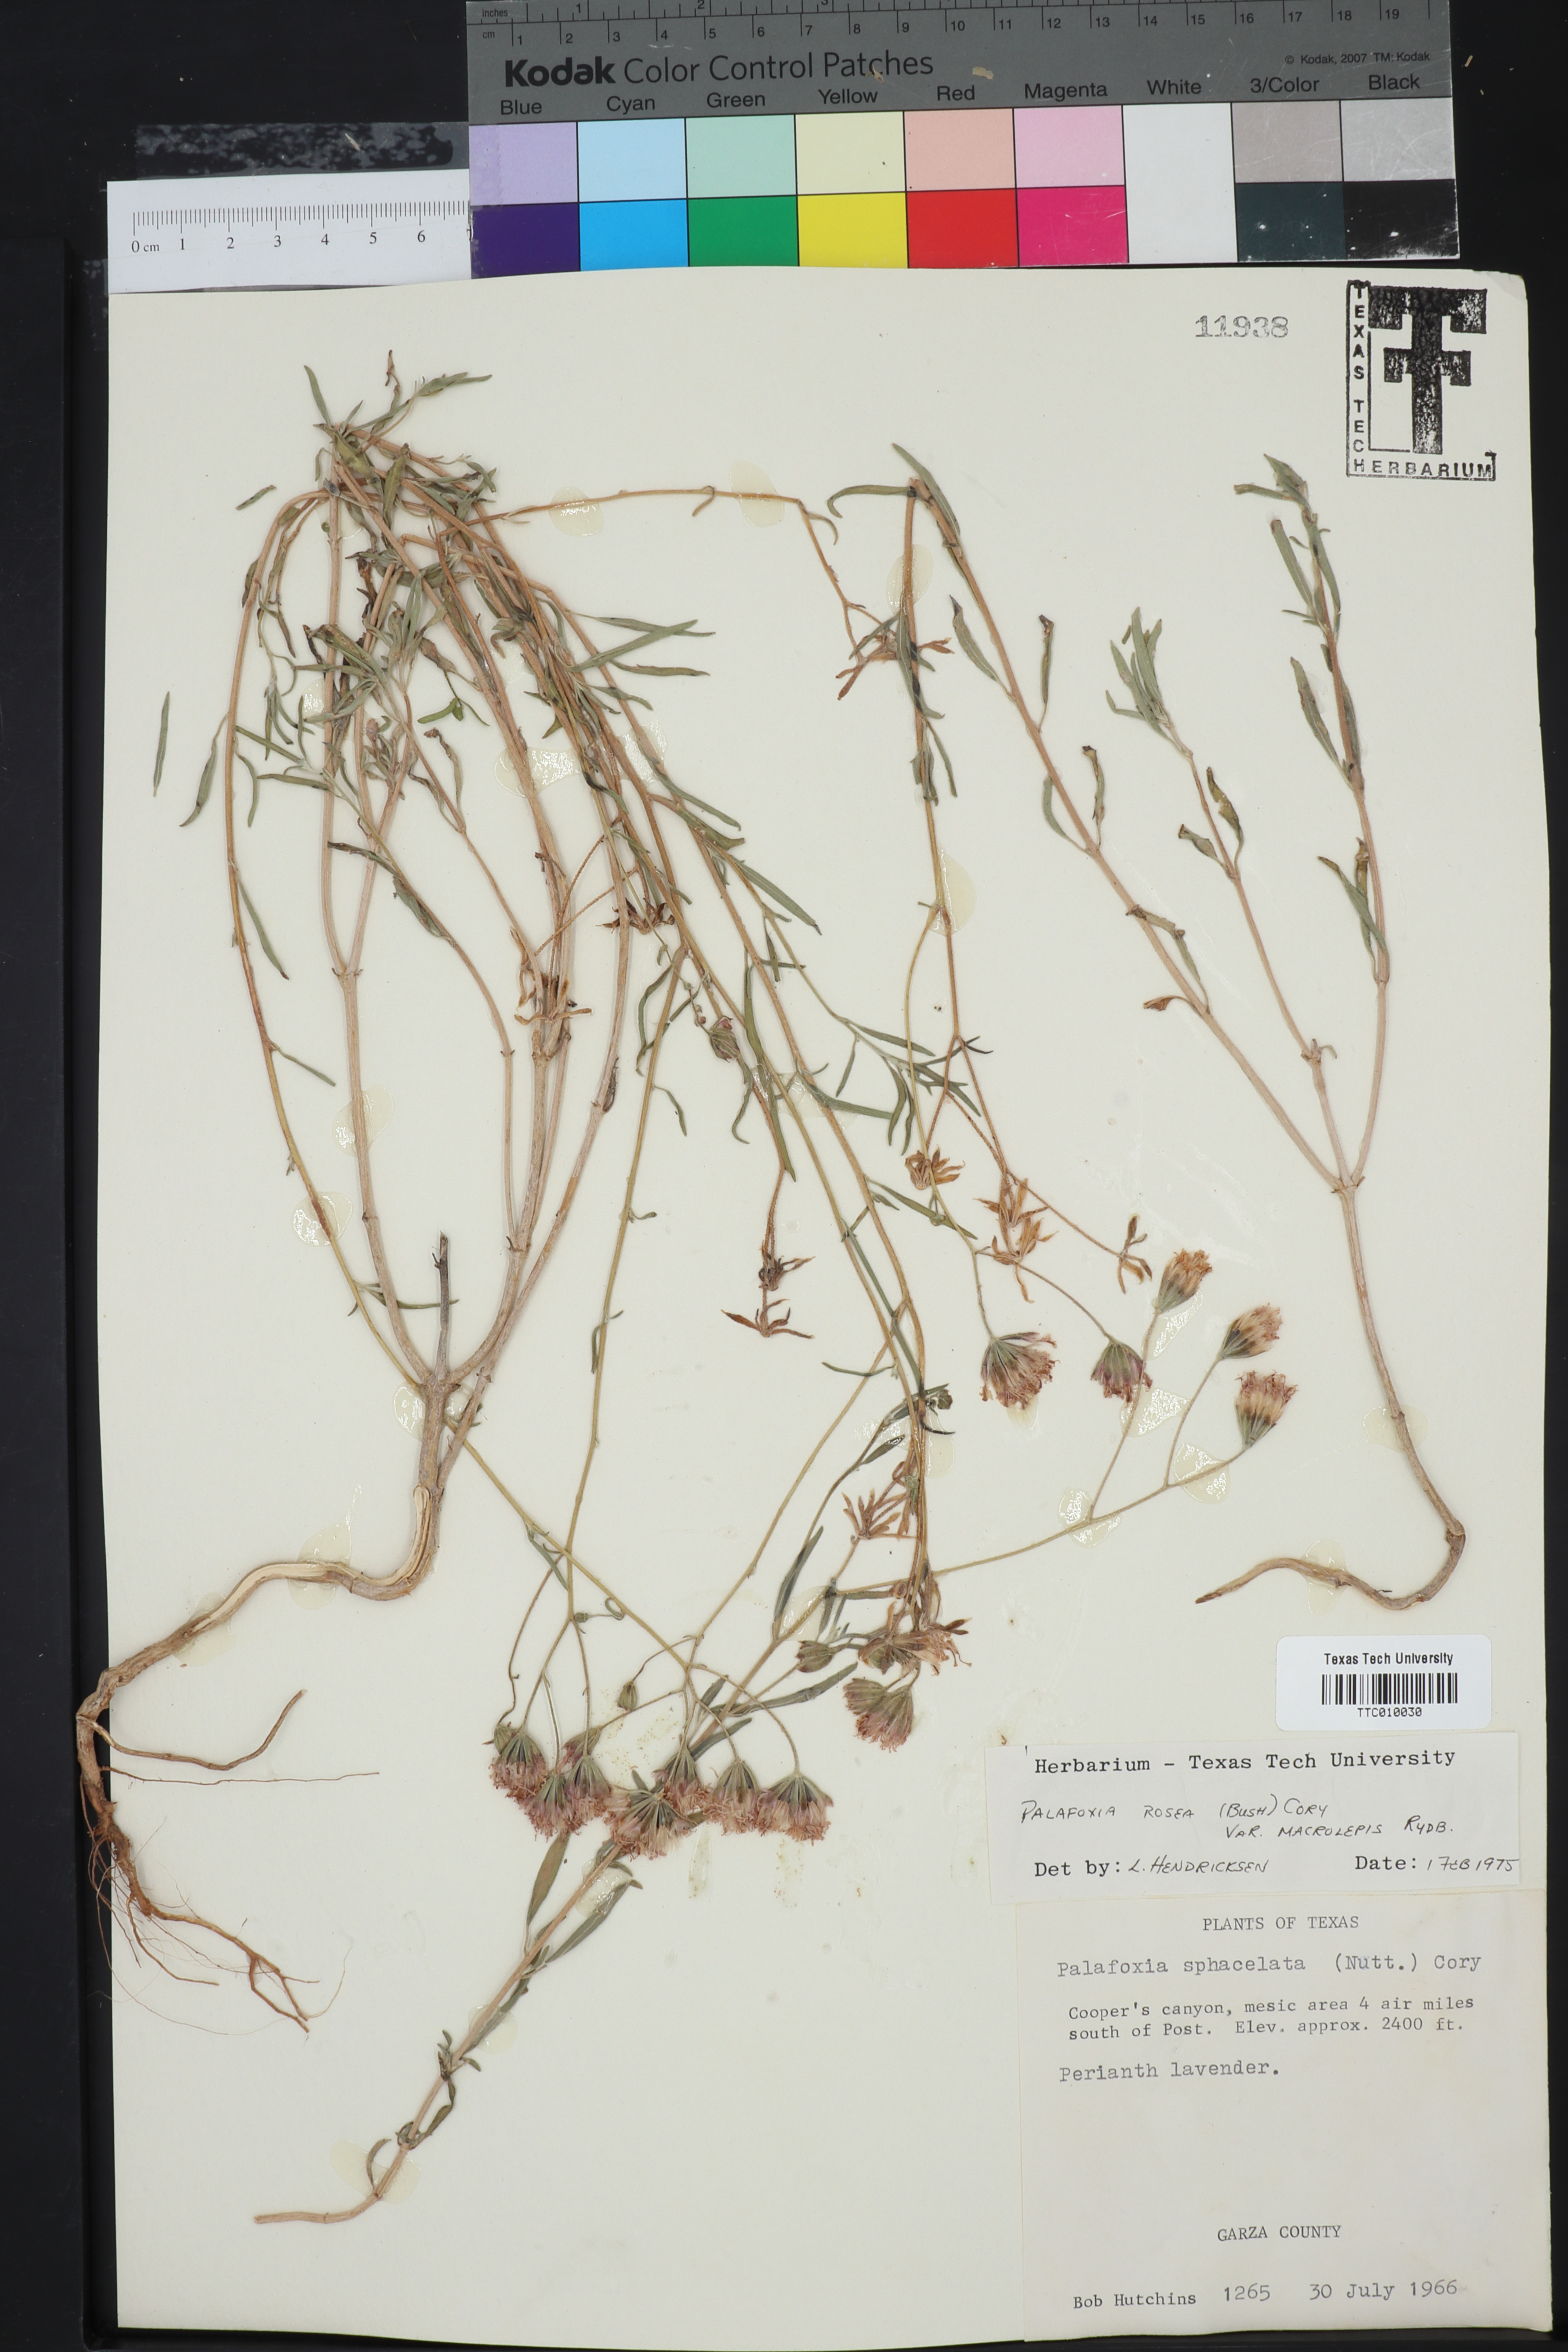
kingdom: Plantae
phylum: Tracheophyta
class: Magnoliopsida
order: Asterales
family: Asteraceae
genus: Palafoxia
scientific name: Palafoxia rosea
